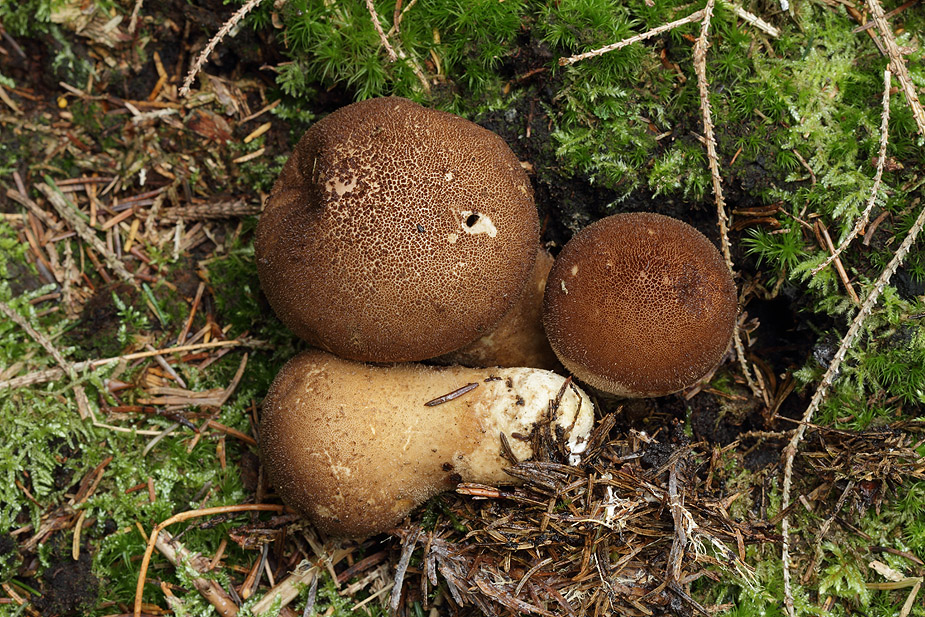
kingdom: Fungi
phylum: Basidiomycota
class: Agaricomycetes
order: Agaricales
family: Lycoperdaceae
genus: Lycoperdon
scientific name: Lycoperdon umbrinum
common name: umbrabrun støvbold
